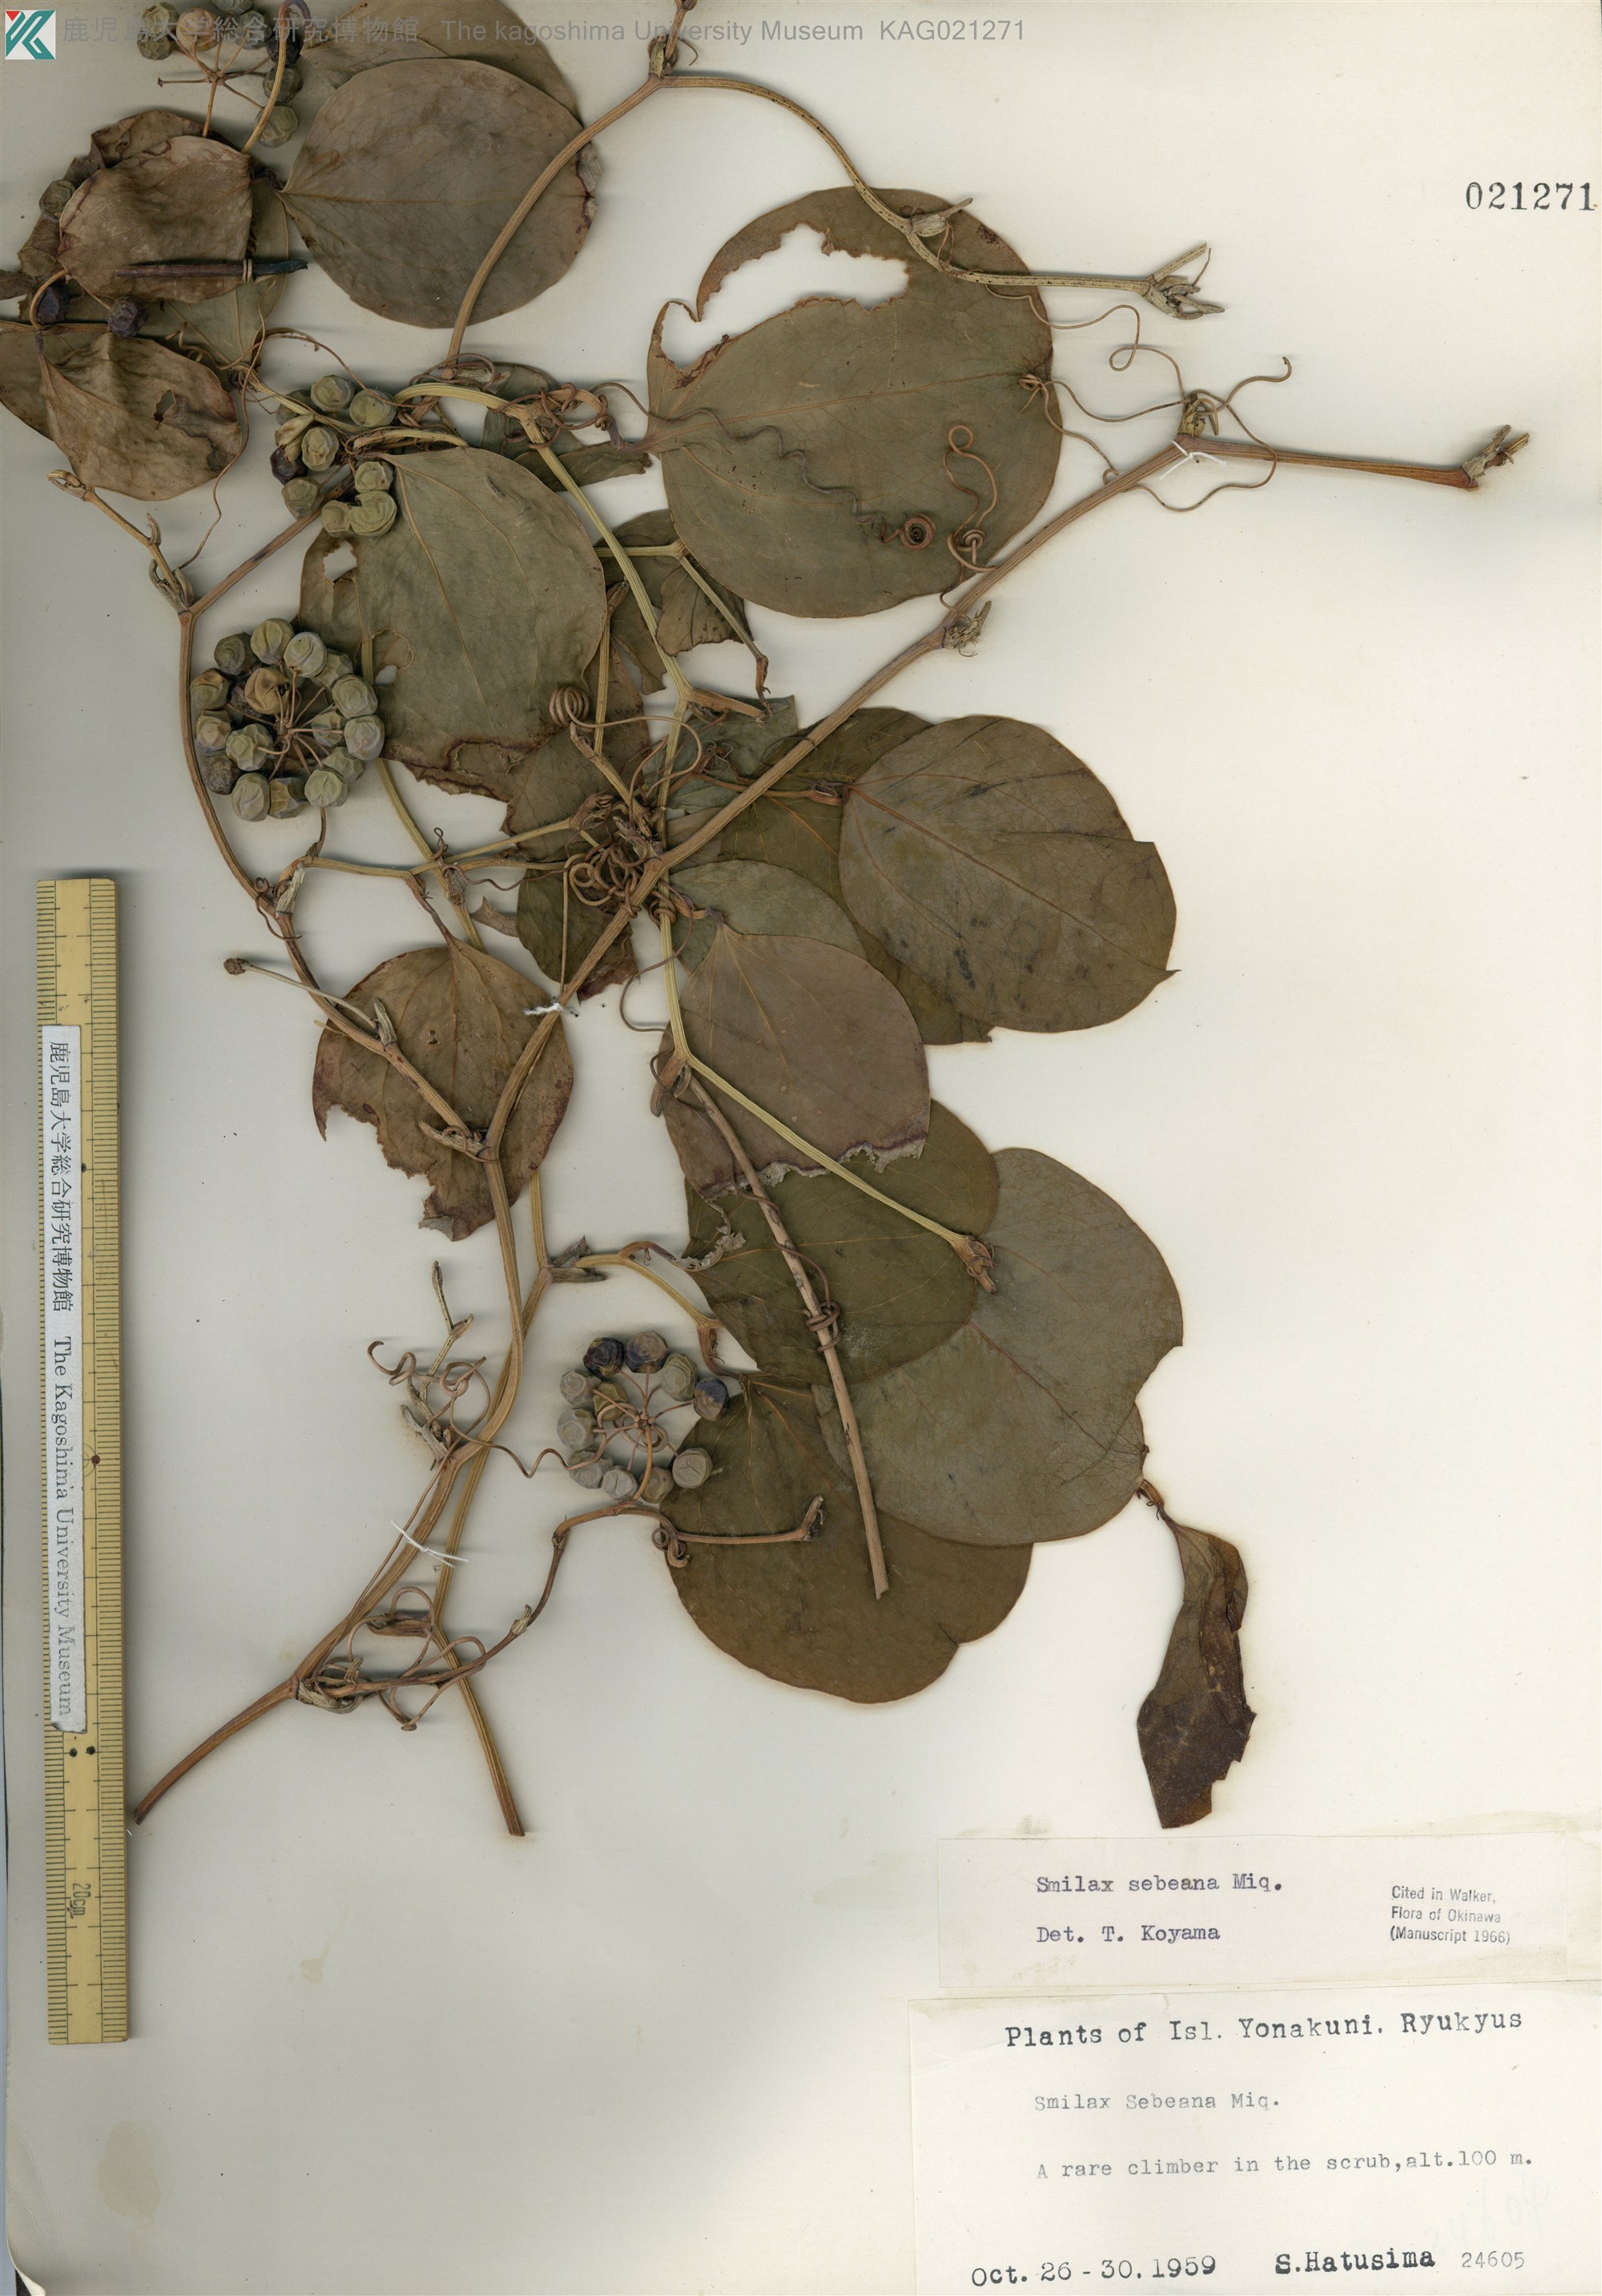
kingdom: Plantae
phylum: Tracheophyta
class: Liliopsida
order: Liliales
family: Smilacaceae
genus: Smilax
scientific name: Smilax sebeana
